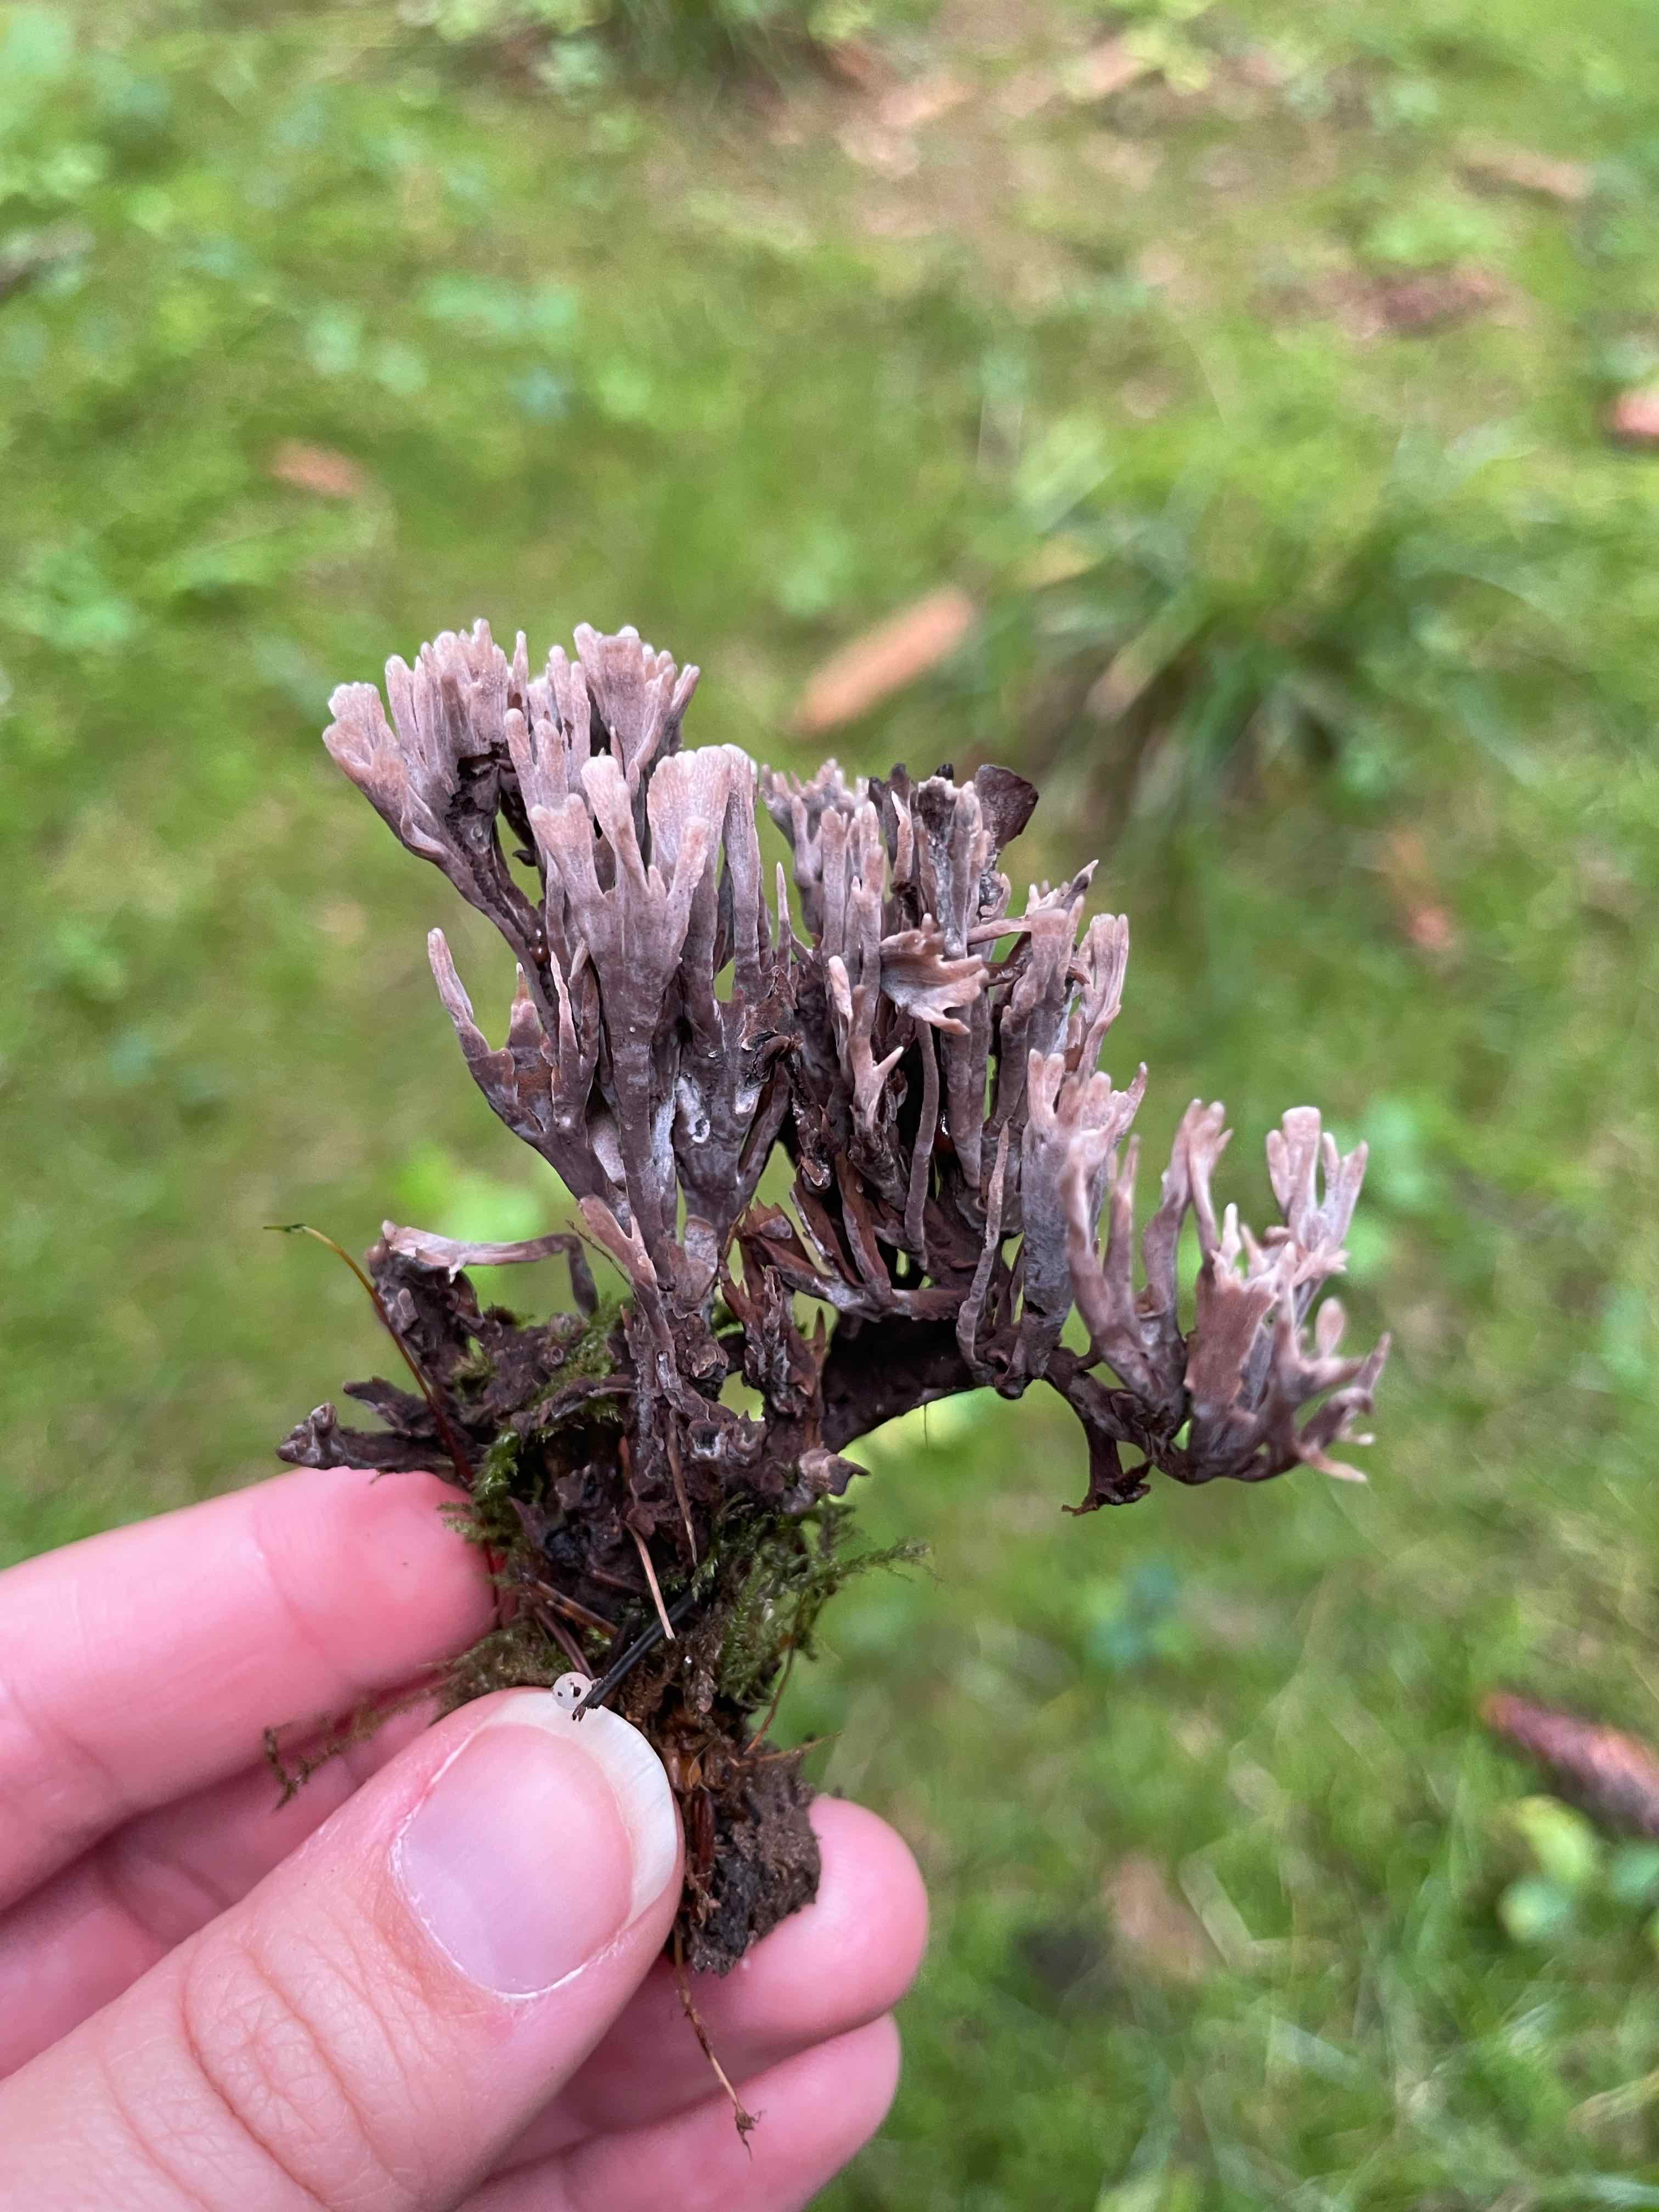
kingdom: Fungi
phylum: Basidiomycota
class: Agaricomycetes
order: Thelephorales
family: Thelephoraceae
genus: Thelephora
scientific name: Thelephora palmata
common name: grenet frynsesvamp
